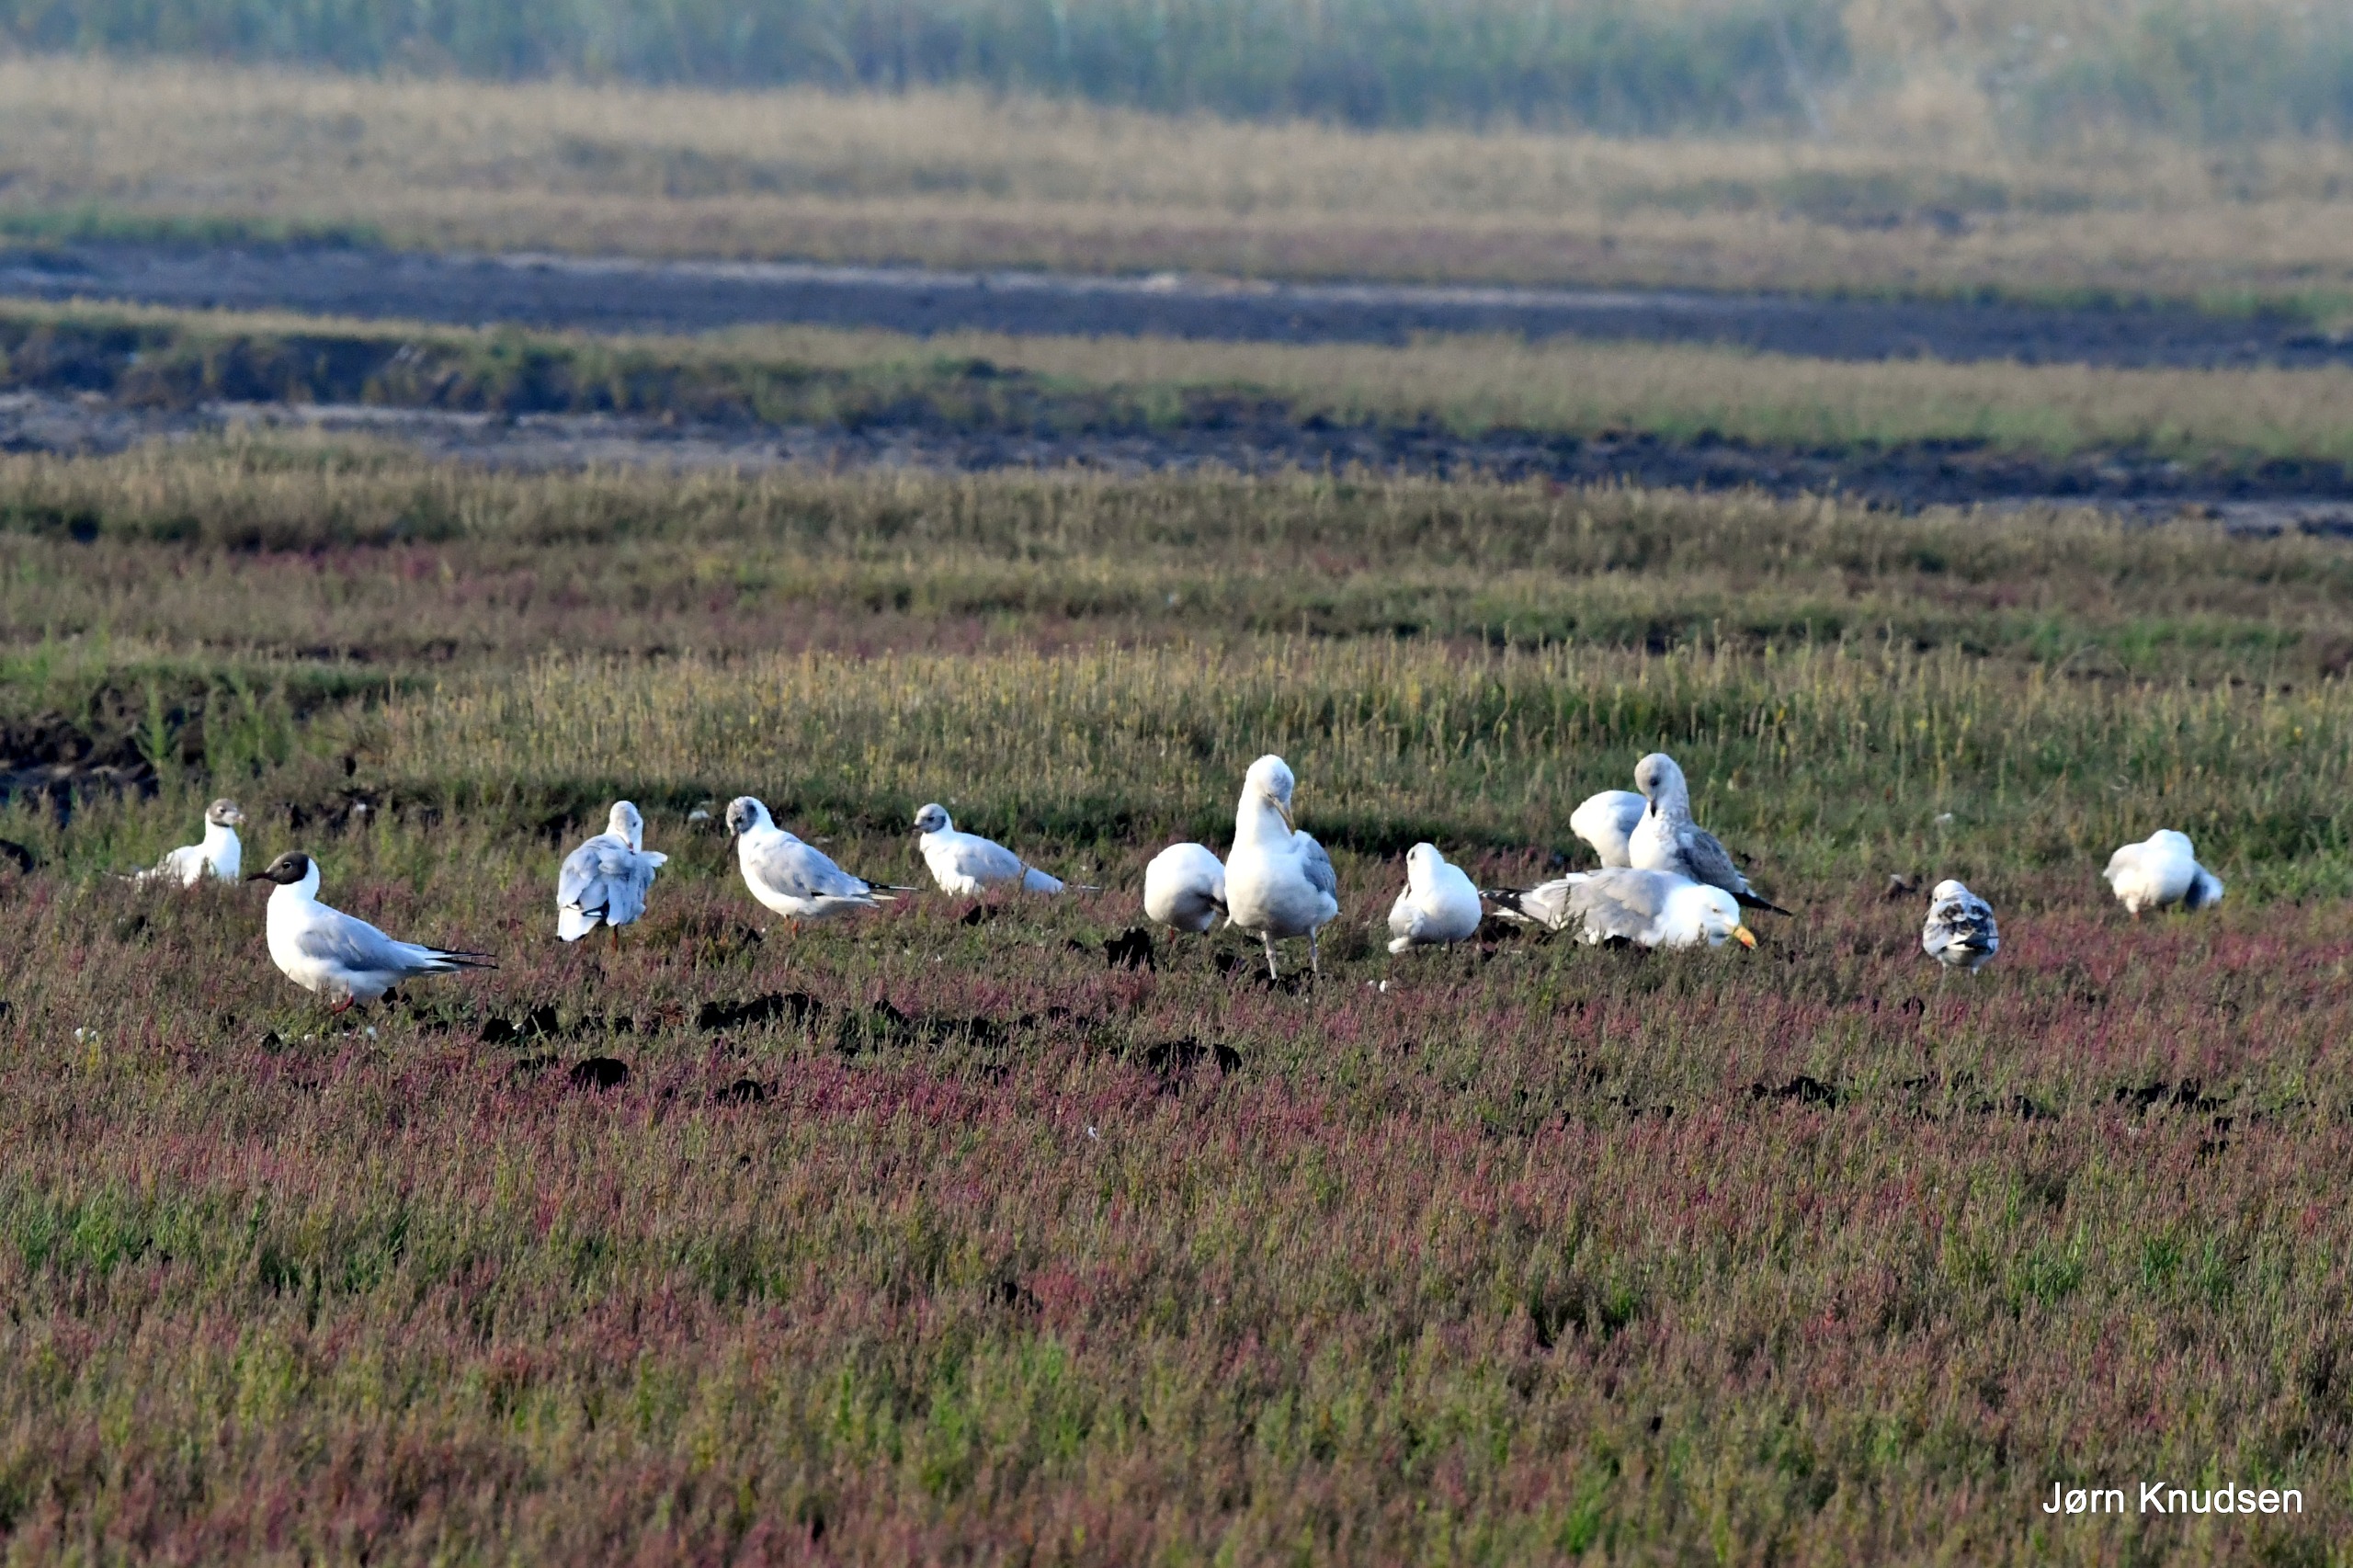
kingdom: Animalia
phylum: Chordata
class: Aves
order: Charadriiformes
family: Laridae
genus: Chroicocephalus
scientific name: Chroicocephalus ridibundus
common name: Hættemåge
